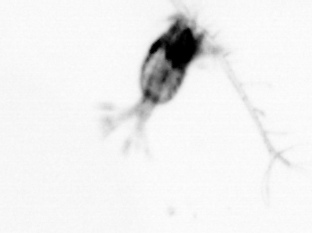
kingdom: Animalia
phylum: Arthropoda
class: Copepoda
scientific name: Copepoda
